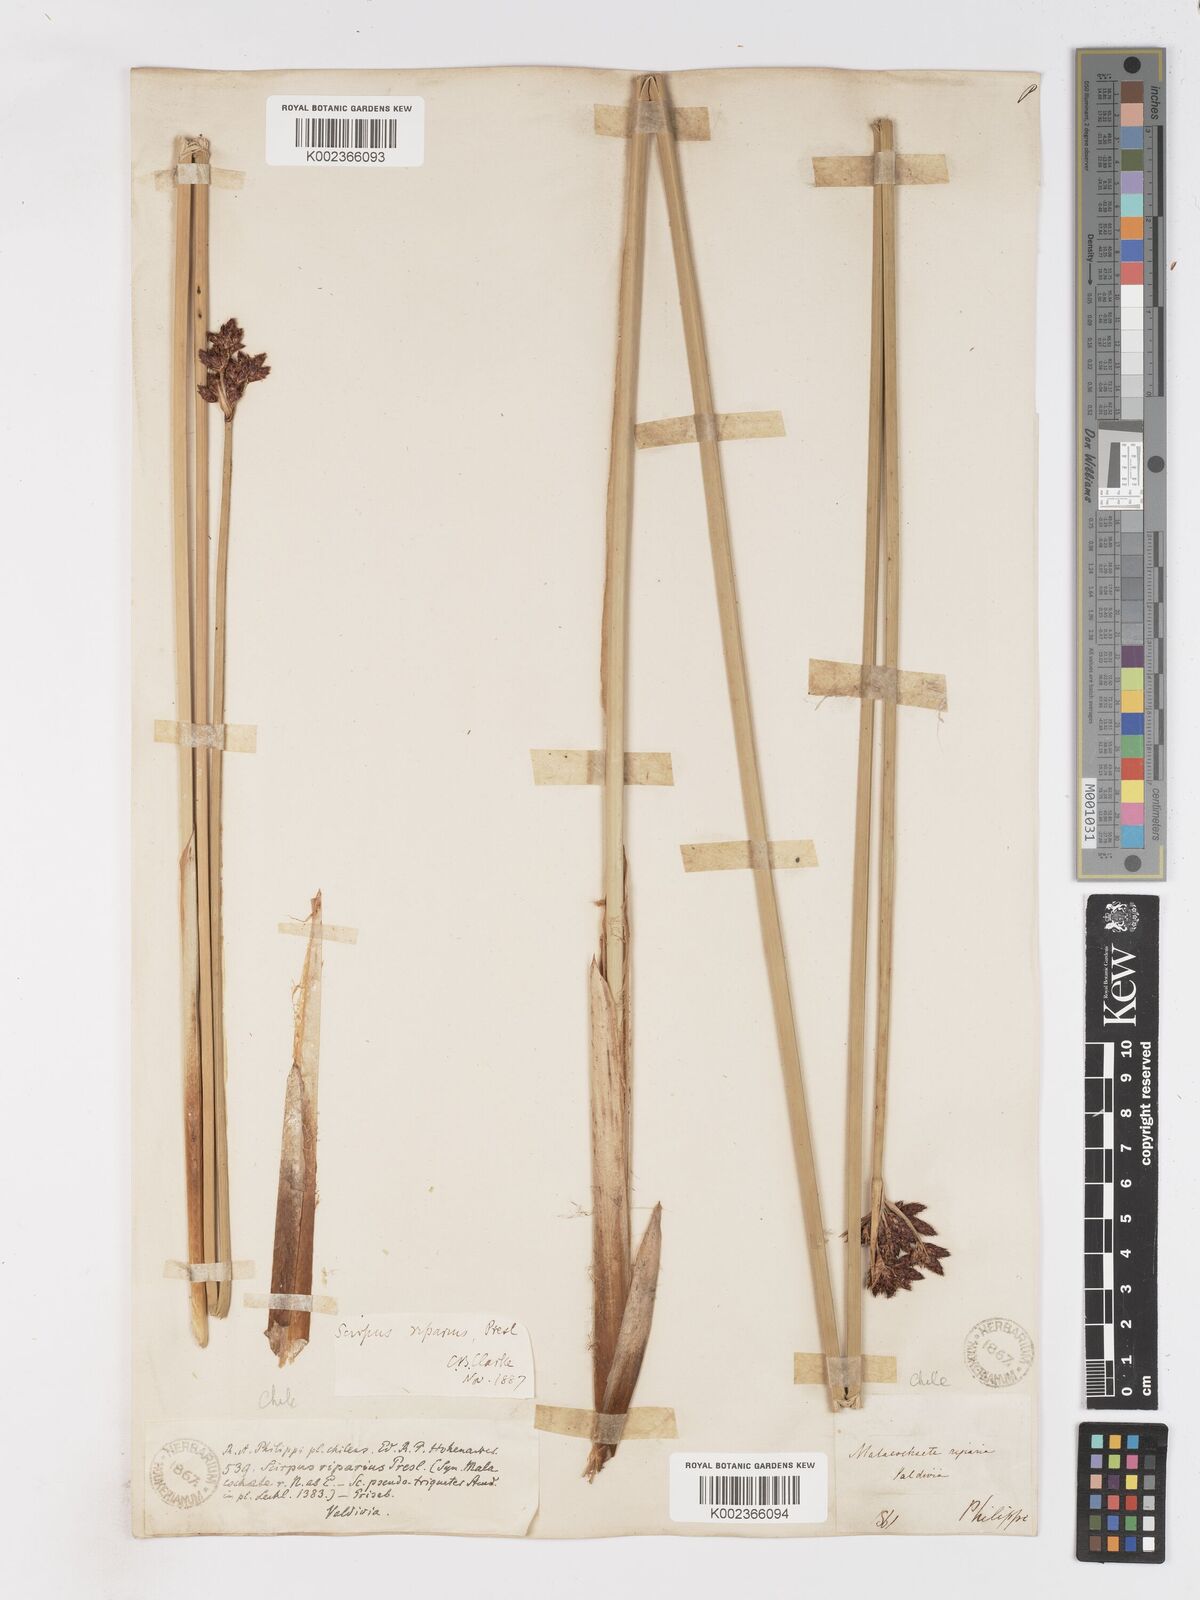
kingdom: Plantae
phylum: Tracheophyta
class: Liliopsida
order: Poales
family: Cyperaceae
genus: Schoenoplectus
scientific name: Schoenoplectus californicus
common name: California bulrush
